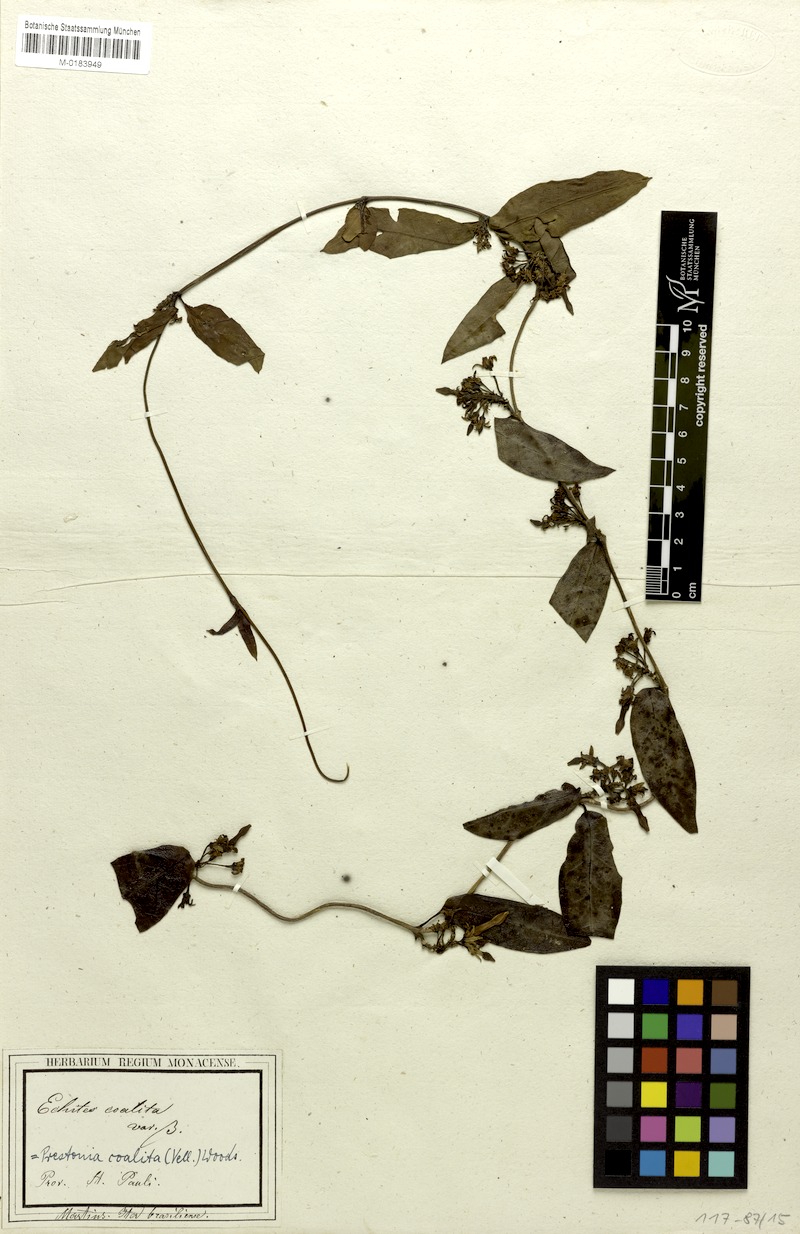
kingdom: Plantae
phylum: Tracheophyta
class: Magnoliopsida
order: Gentianales
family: Apocynaceae
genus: Prestonia
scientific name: Prestonia coalita
